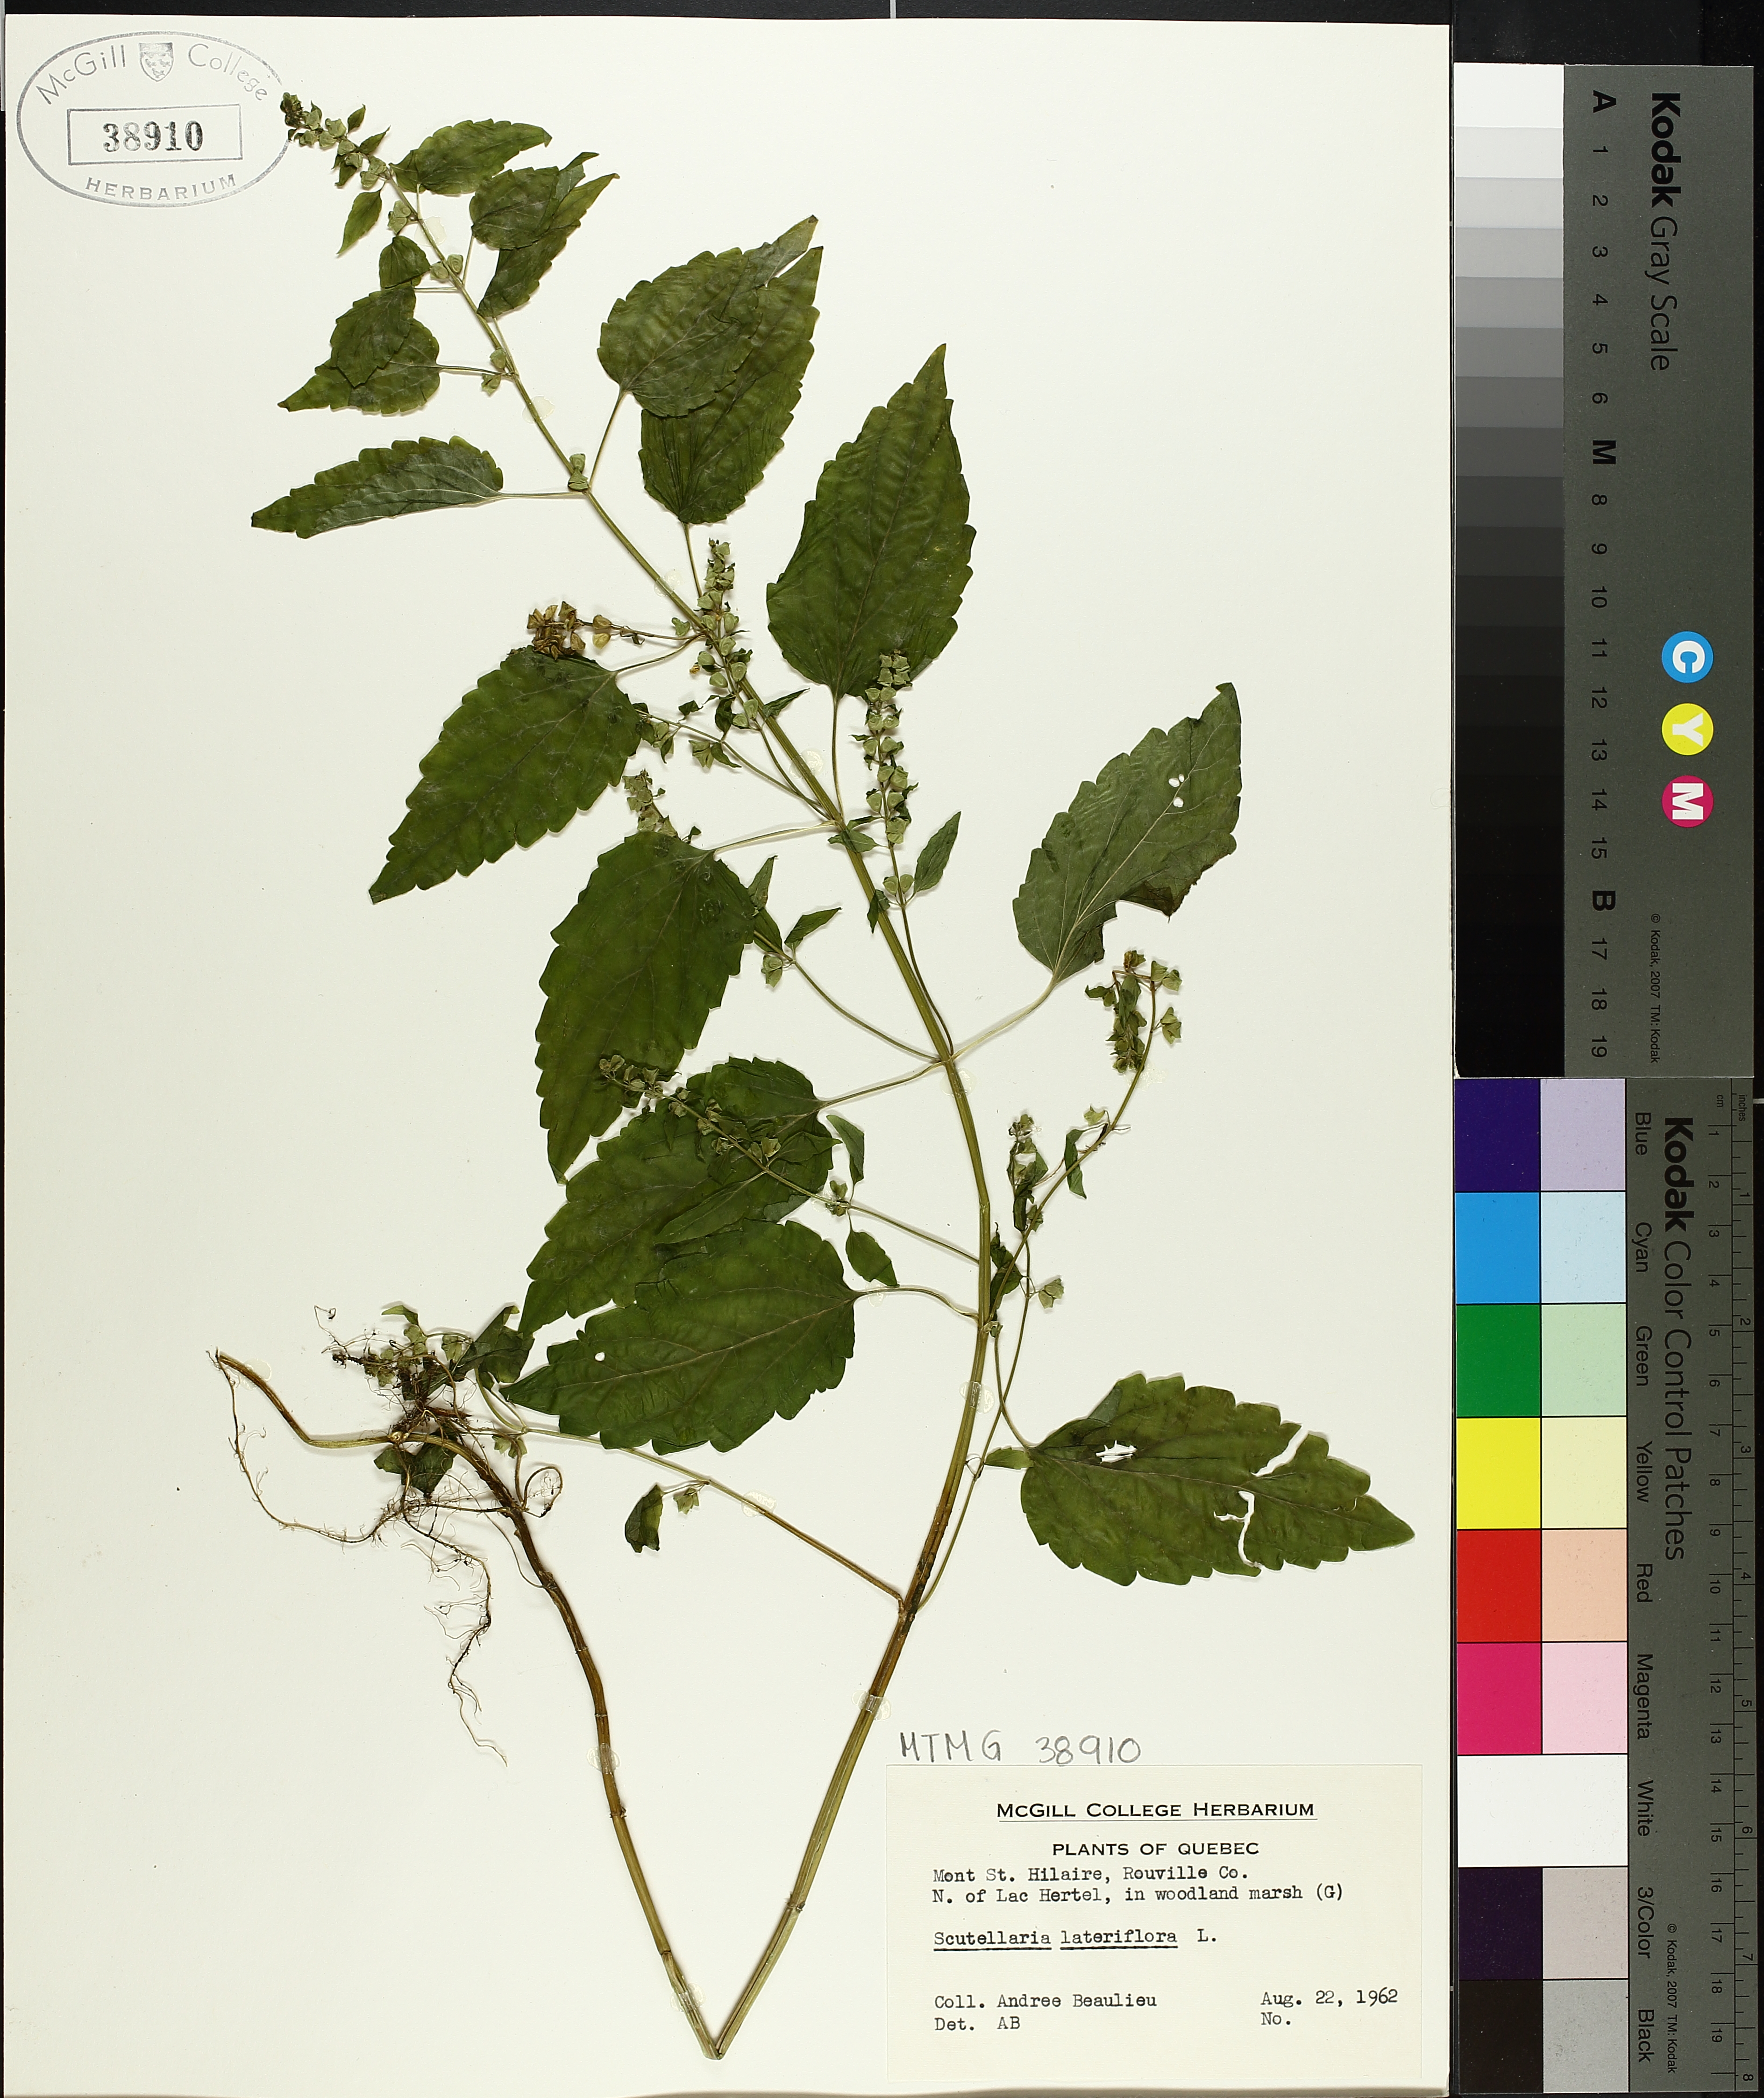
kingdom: Plantae
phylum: Tracheophyta
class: Magnoliopsida
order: Lamiales
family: Lamiaceae
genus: Scutellaria
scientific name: Scutellaria lateriflora
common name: Blue skullcap
